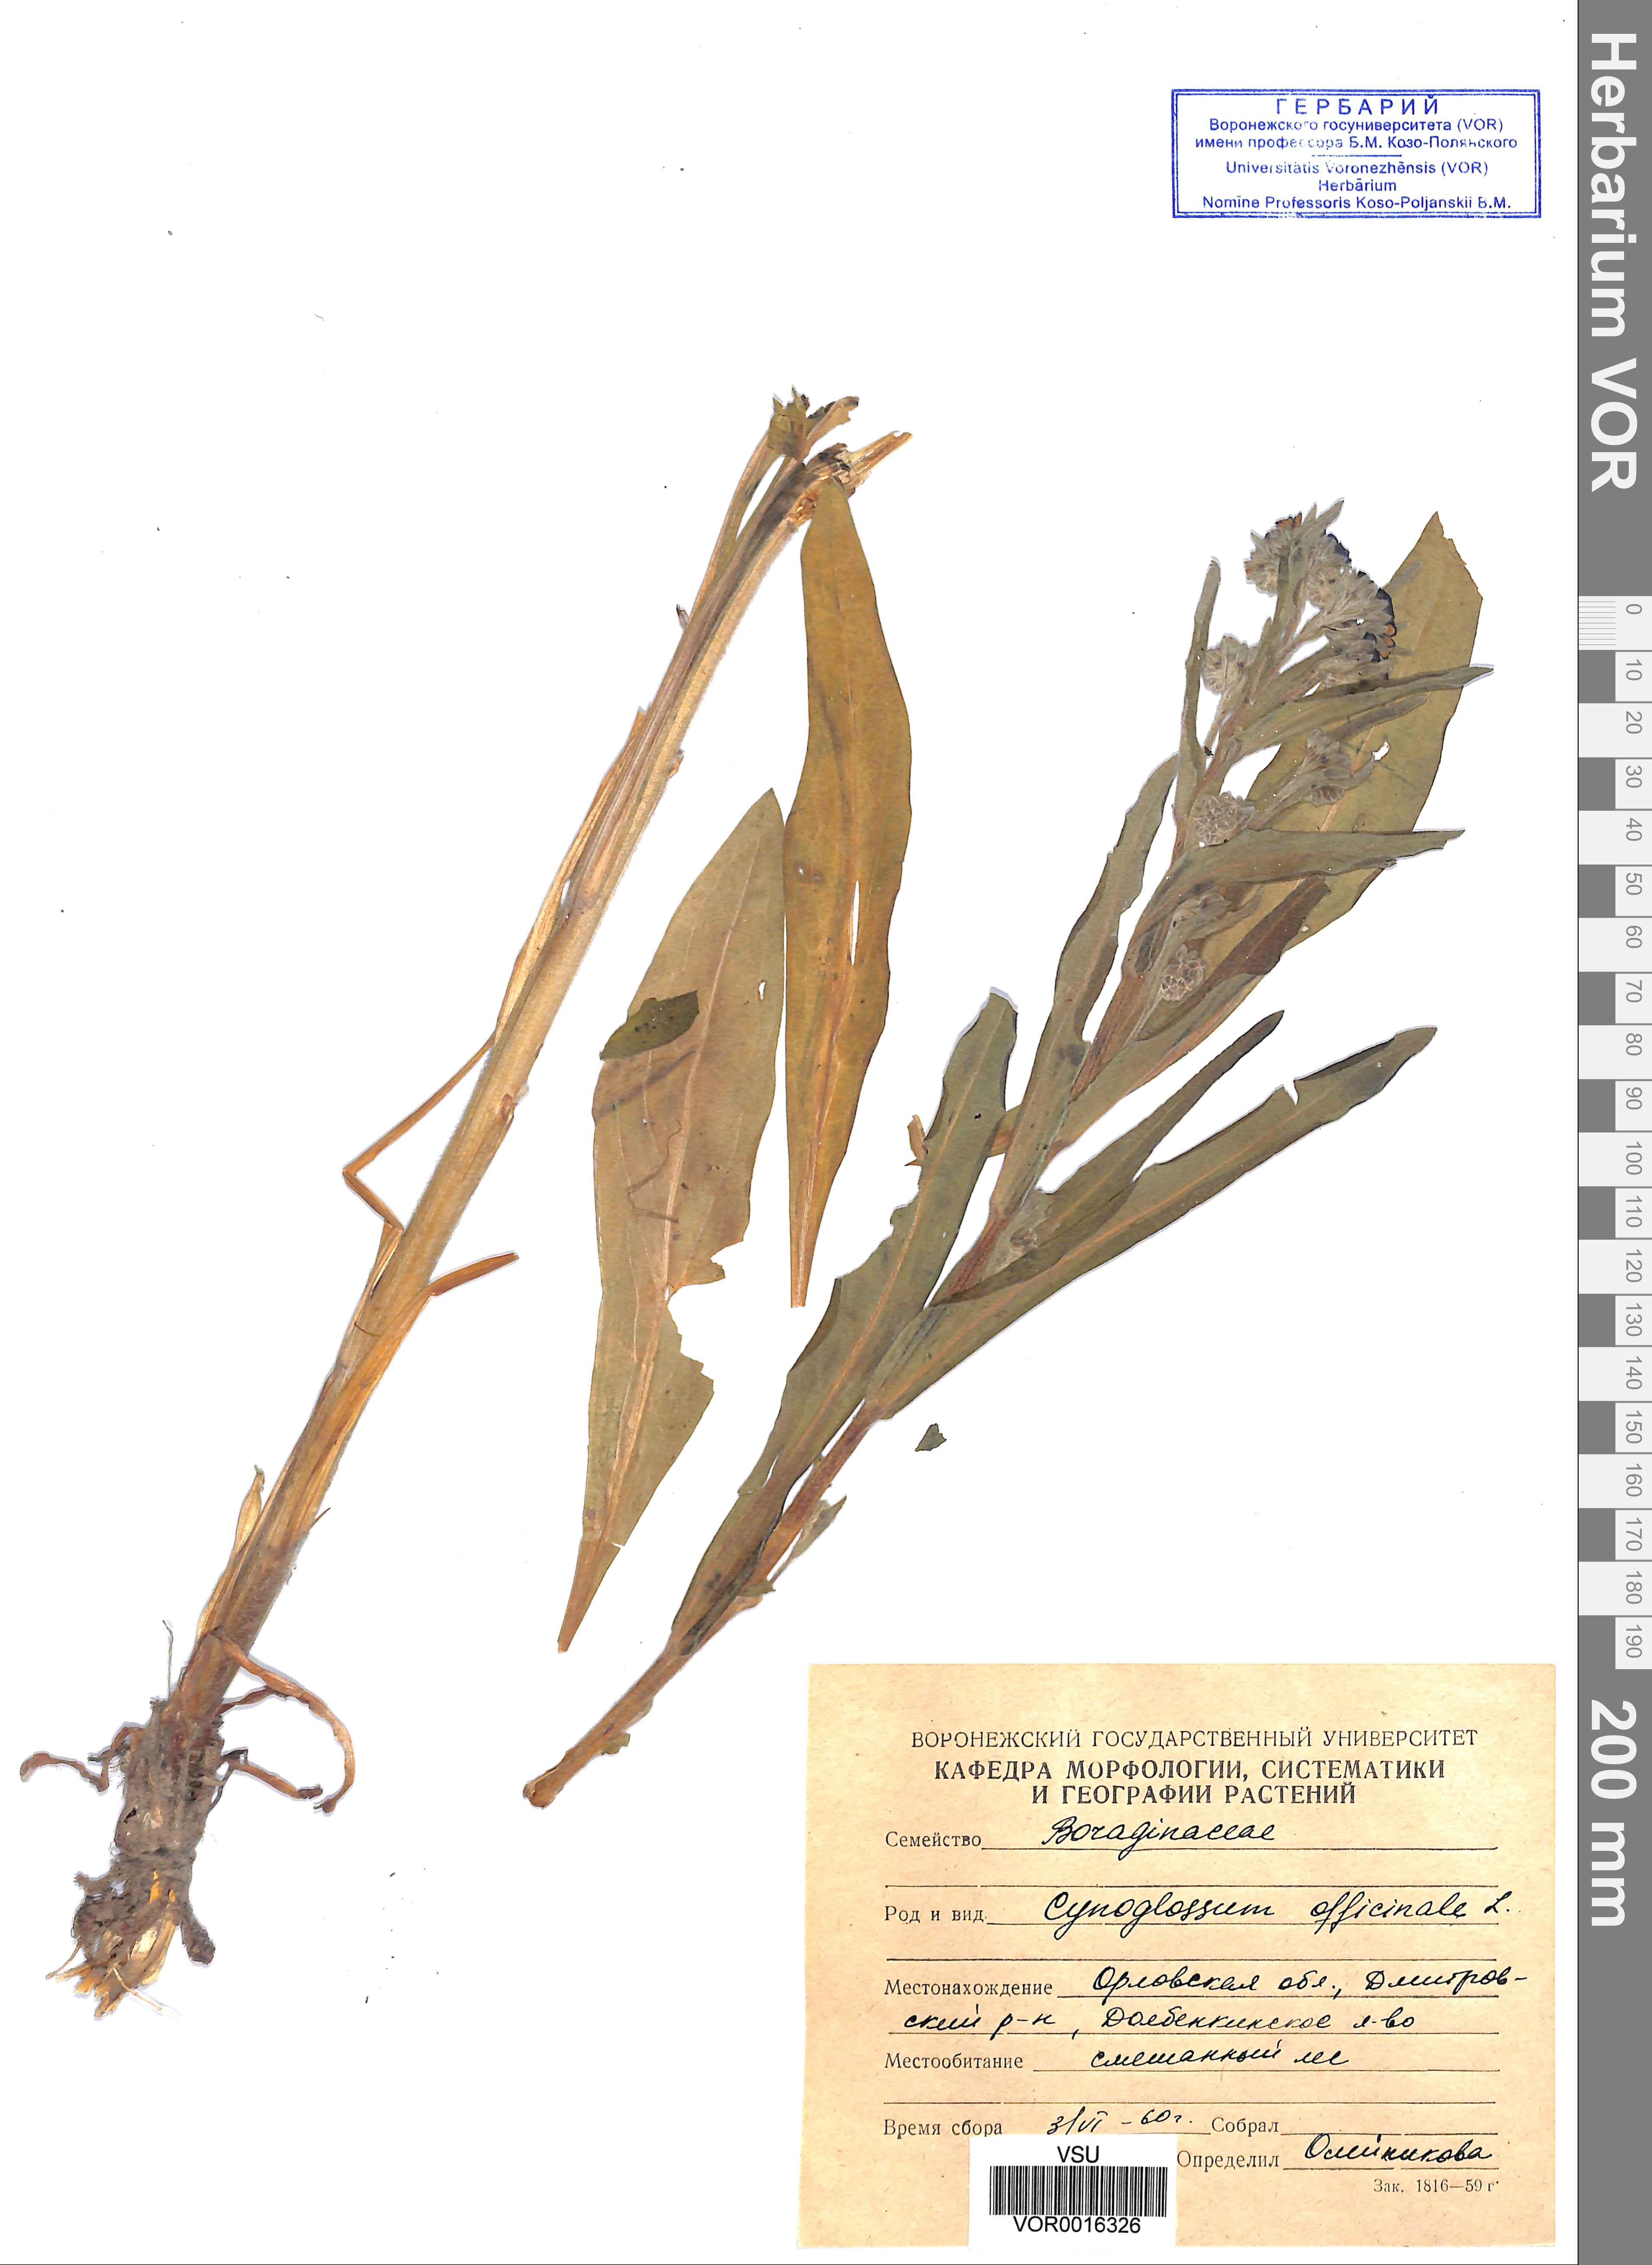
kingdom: Plantae
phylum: Tracheophyta
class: Magnoliopsida
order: Boraginales
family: Boraginaceae
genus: Cynoglossum
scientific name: Cynoglossum officinale
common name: Hound's-tongue
